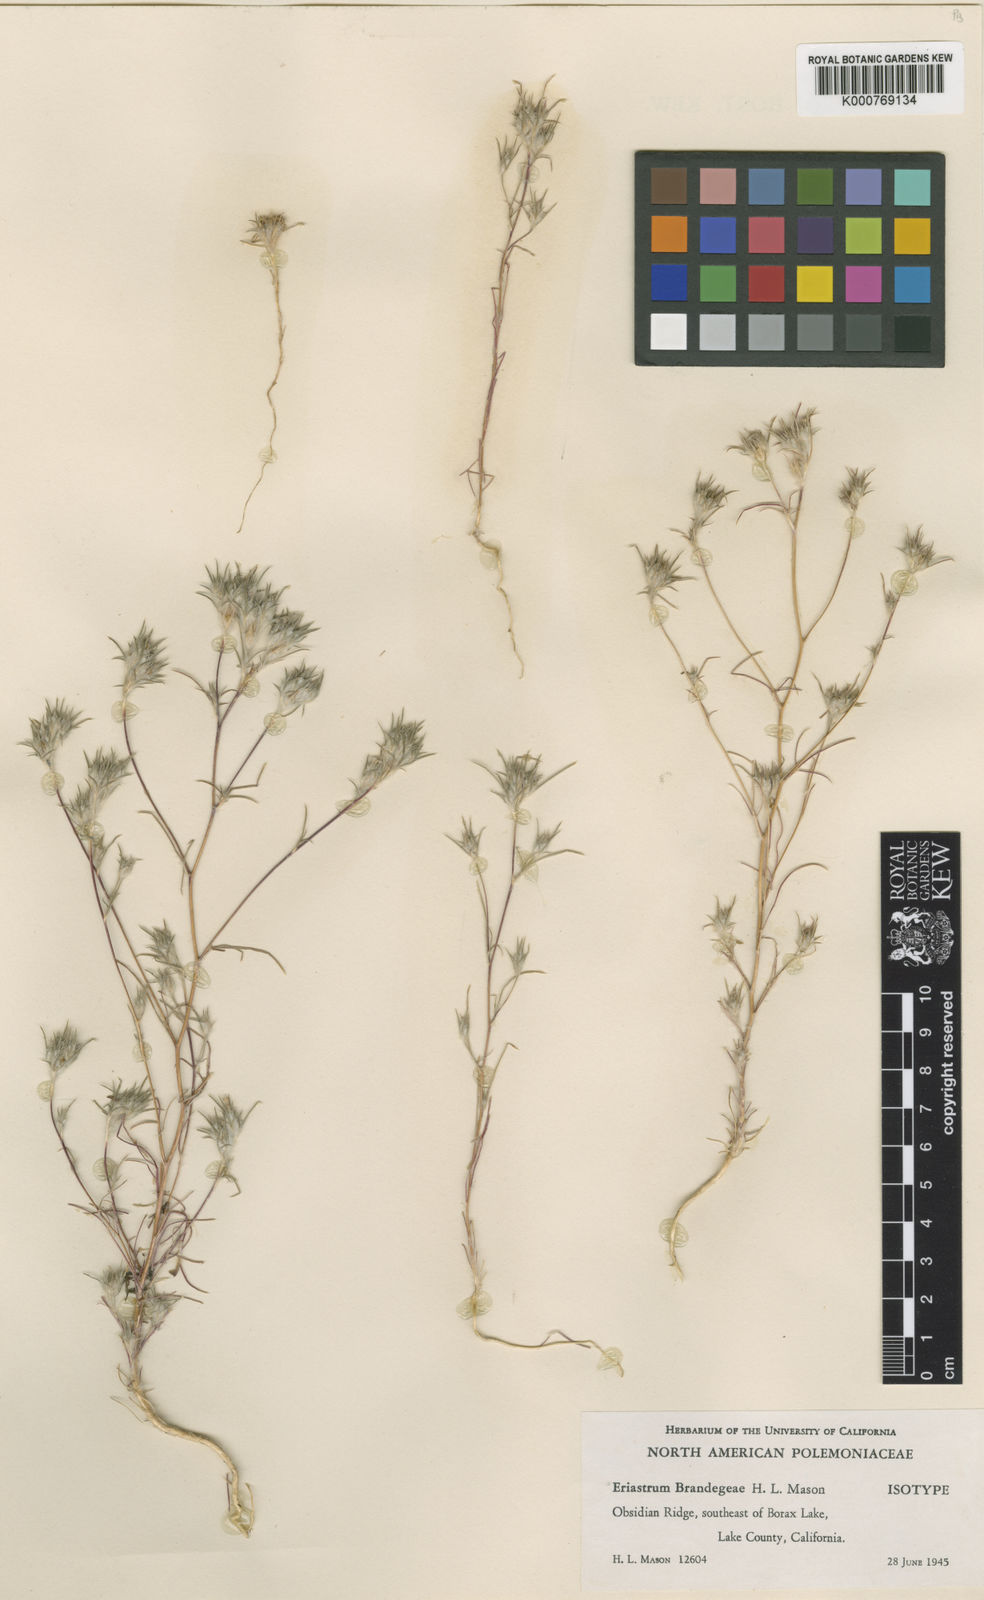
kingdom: Plantae
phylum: Tracheophyta
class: Magnoliopsida
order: Ericales
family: Polemoniaceae
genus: Eriastrum
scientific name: Eriastrum tracyi
